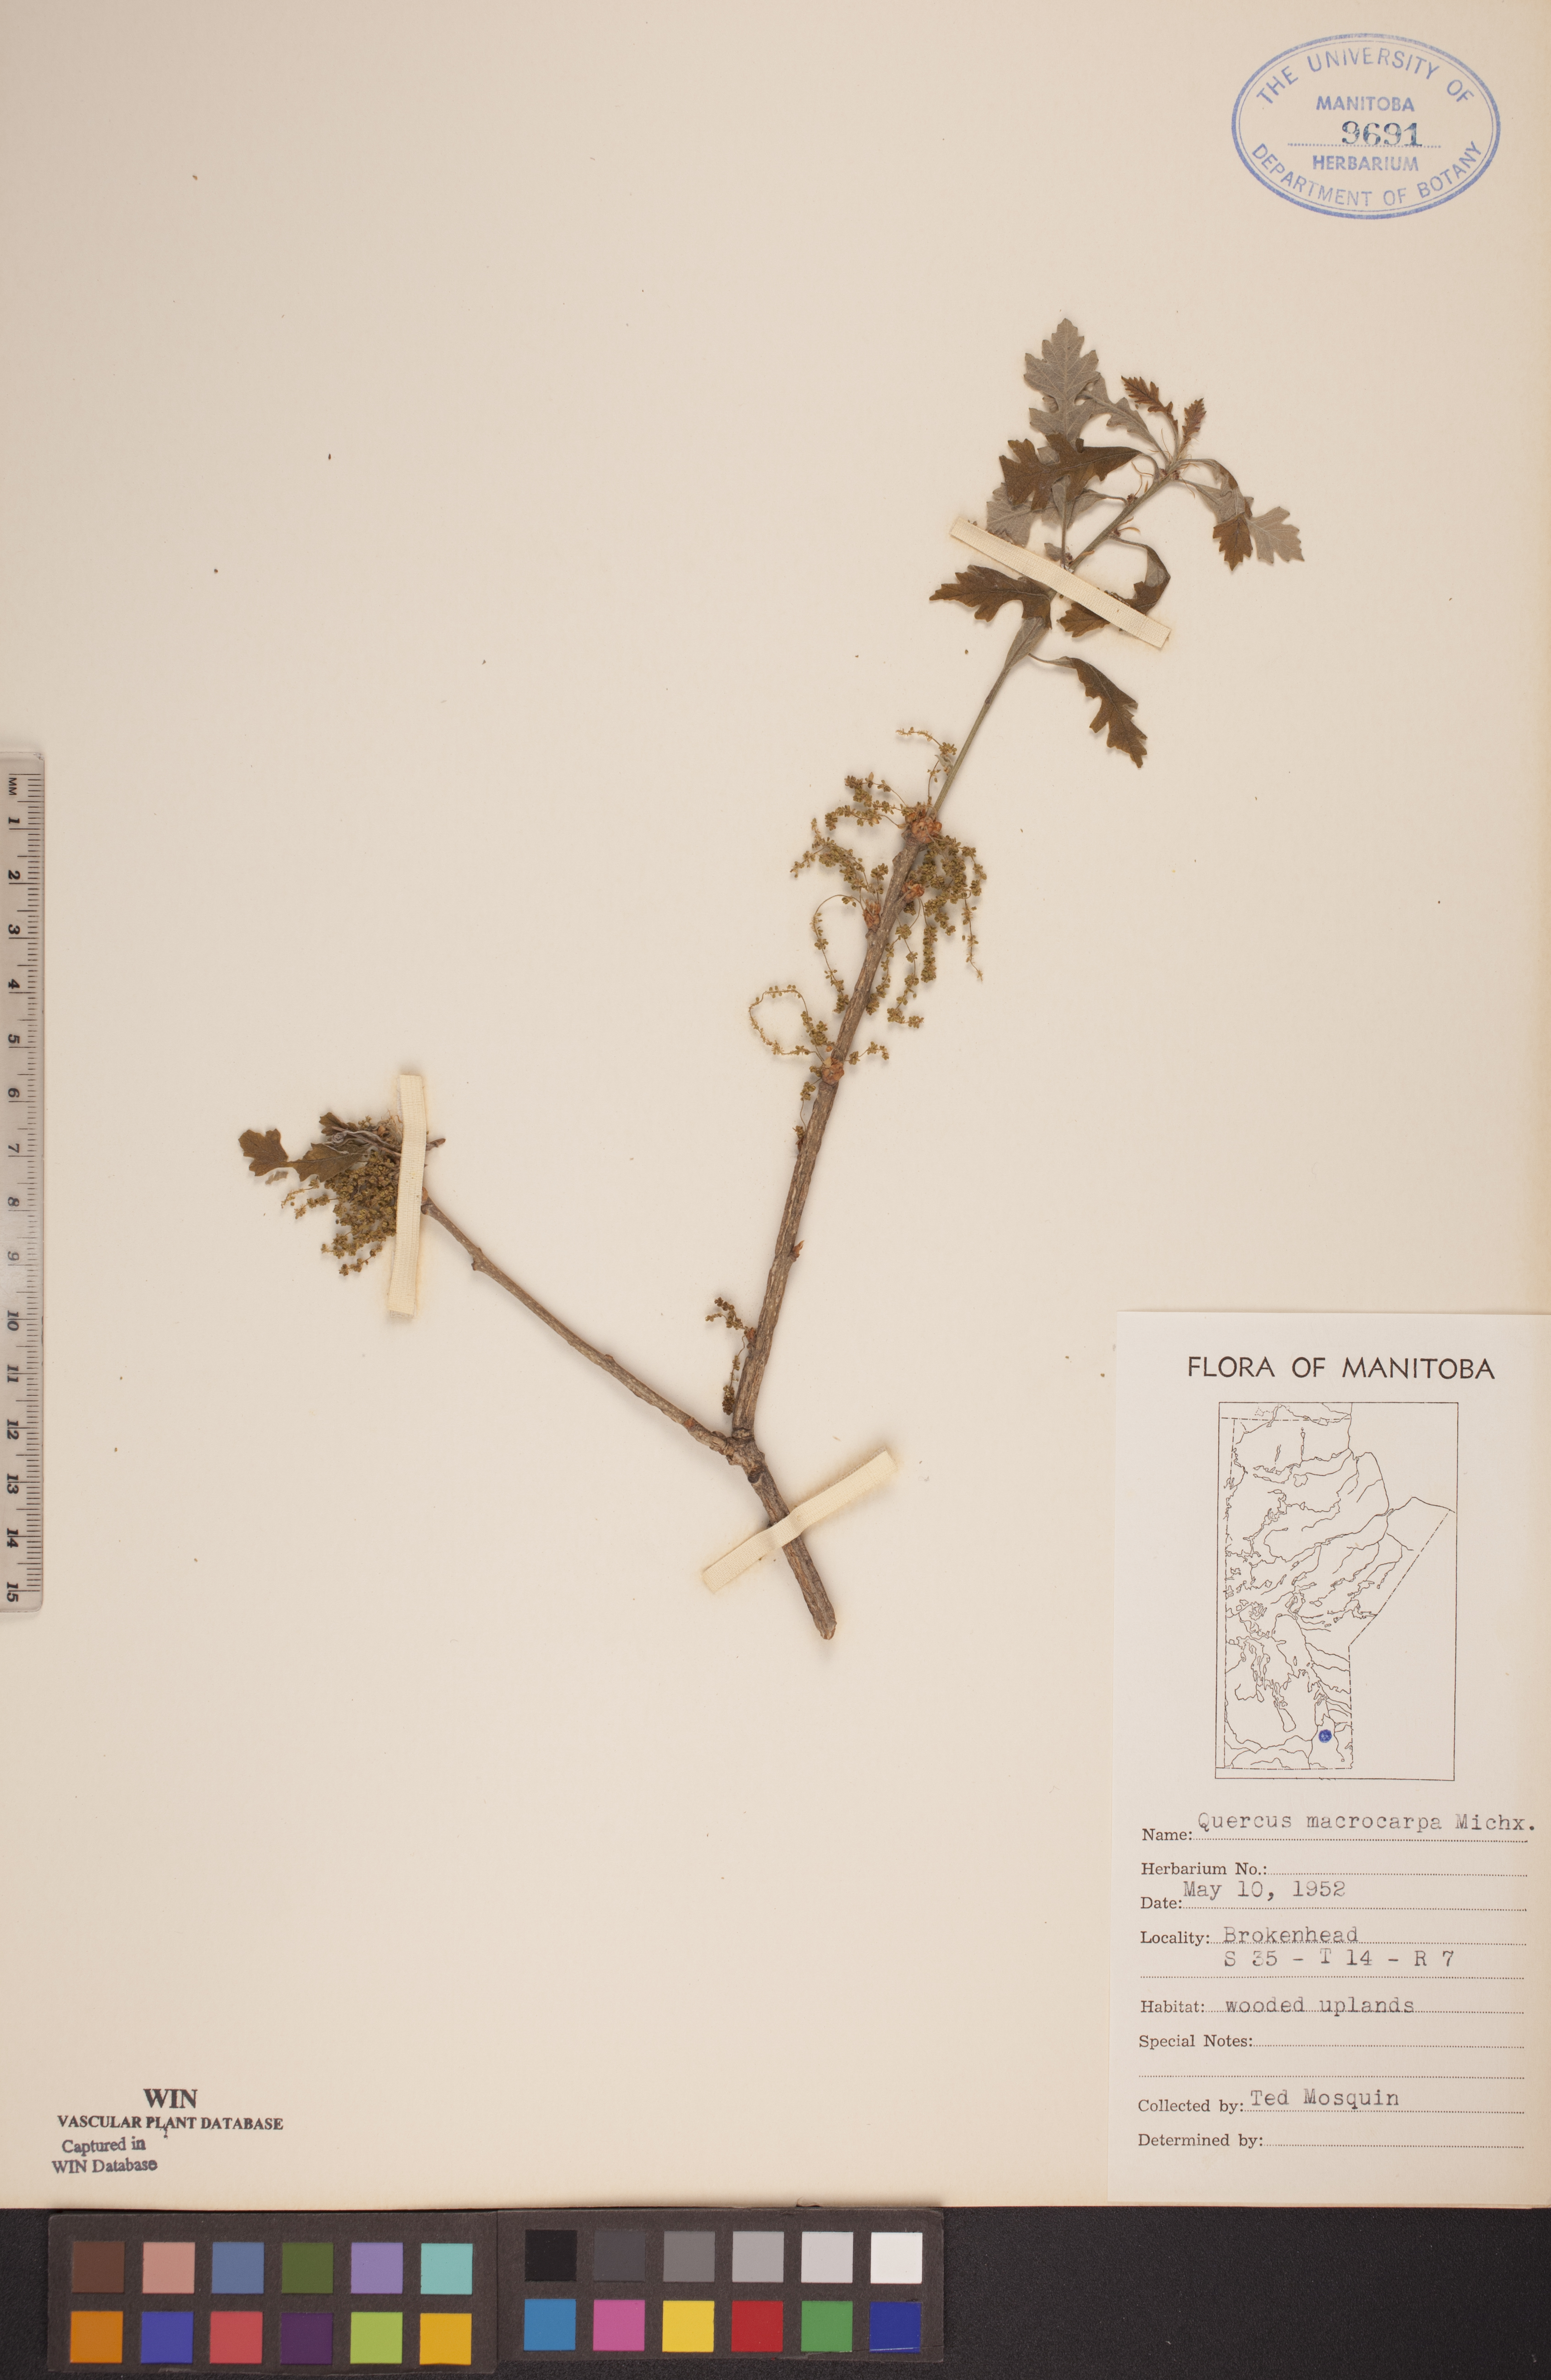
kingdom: Plantae
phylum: Tracheophyta
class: Magnoliopsida
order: Fagales
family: Fagaceae
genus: Quercus
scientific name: Quercus macrocarpa
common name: Bur oak
